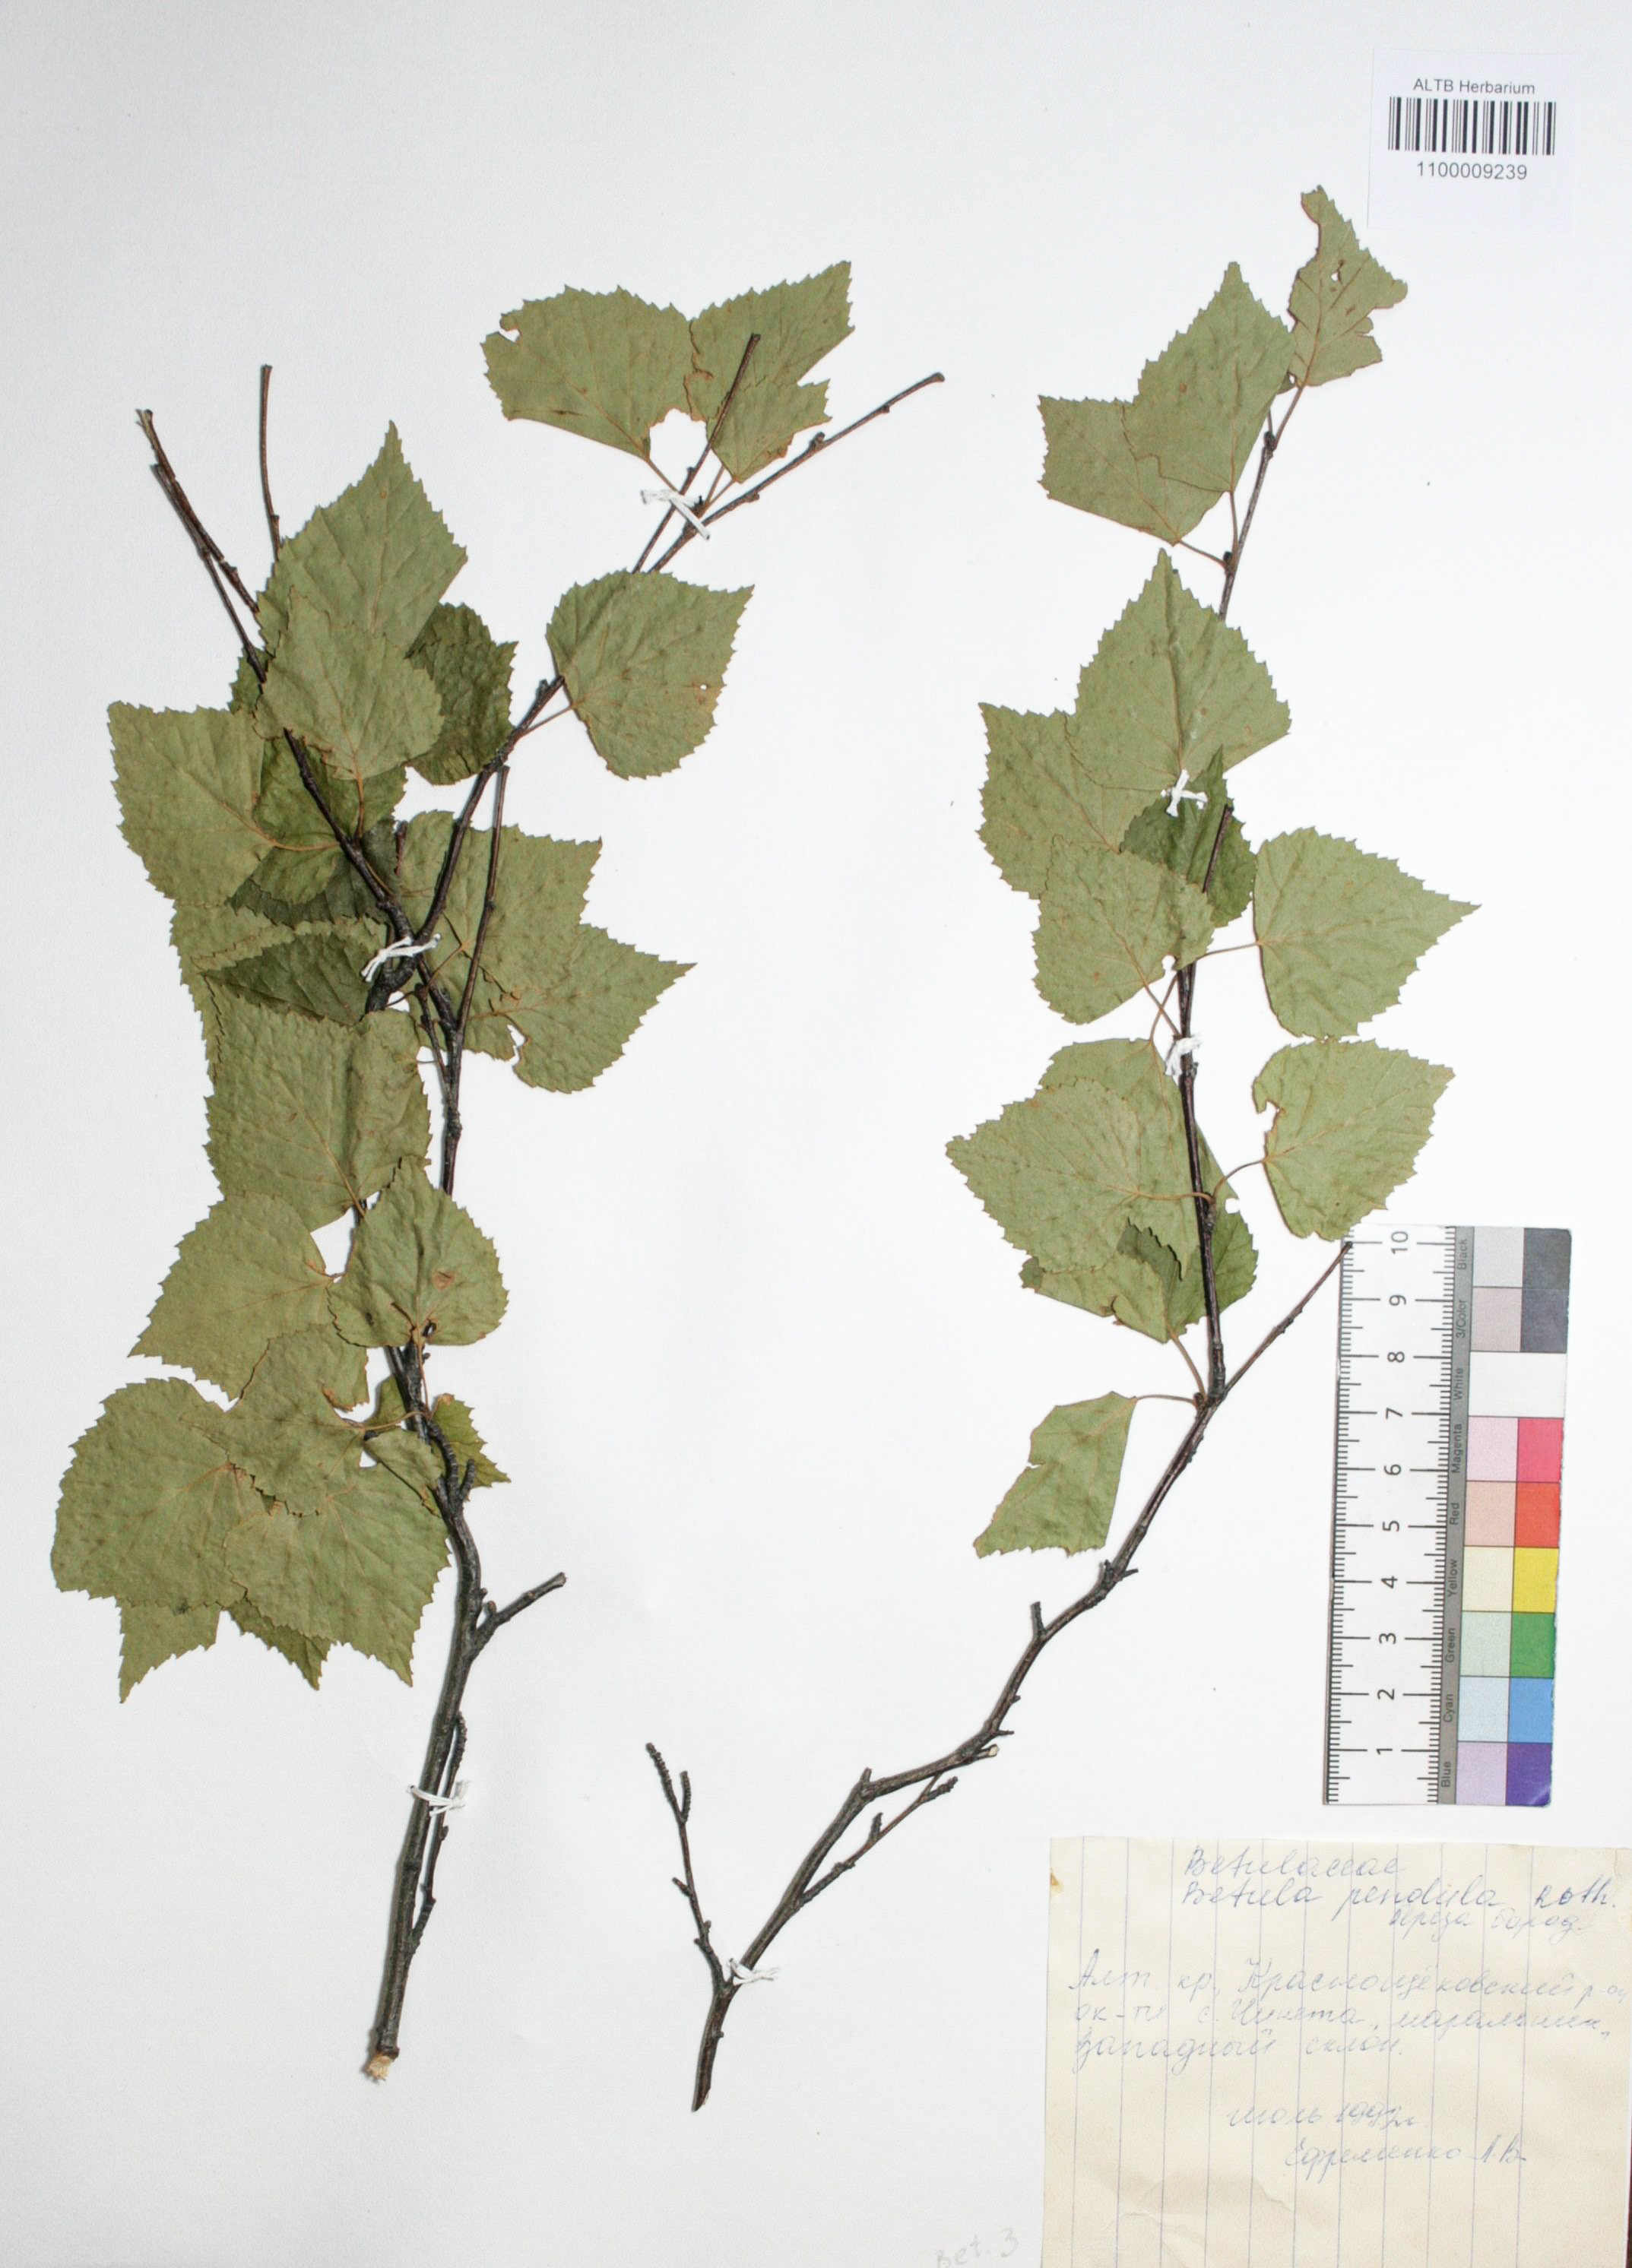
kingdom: Plantae
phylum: Tracheophyta
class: Magnoliopsida
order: Fagales
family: Betulaceae
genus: Betula
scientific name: Betula pendula
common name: Silver birch
